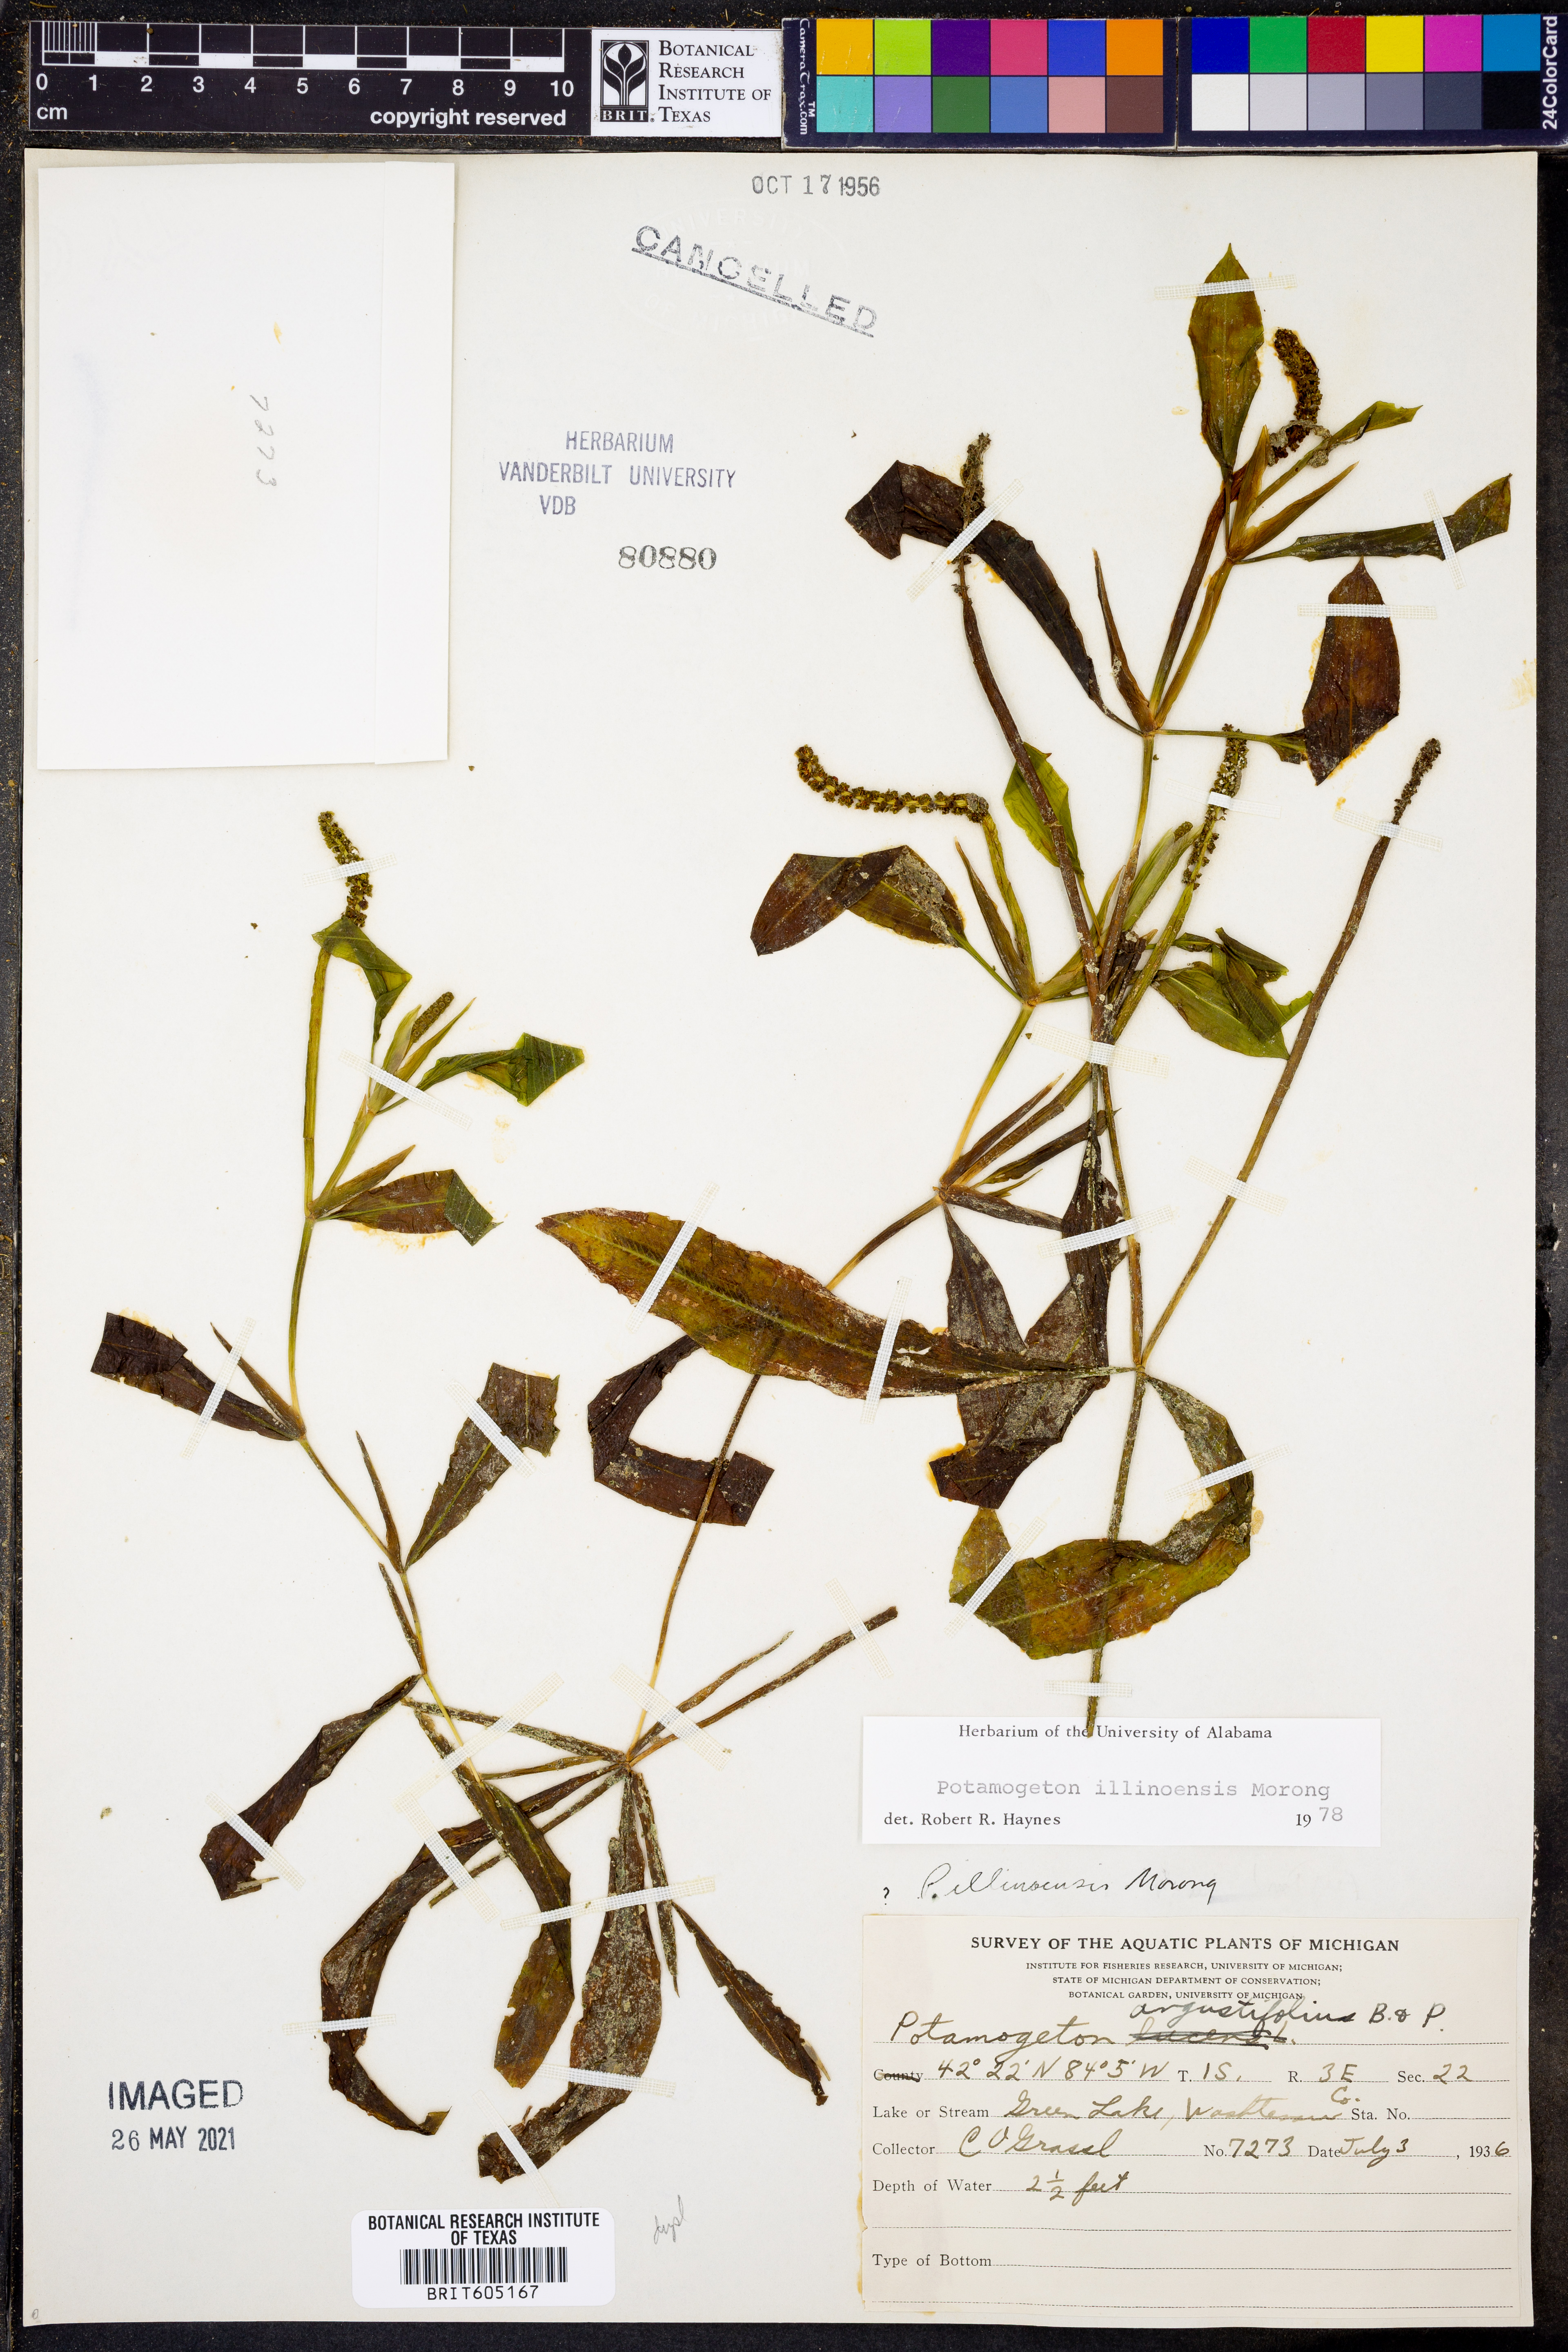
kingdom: Plantae
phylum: Tracheophyta
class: Liliopsida
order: Alismatales
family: Potamogetonaceae
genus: Potamogeton
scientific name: Potamogeton illinoensis
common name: Illinois pondweed
